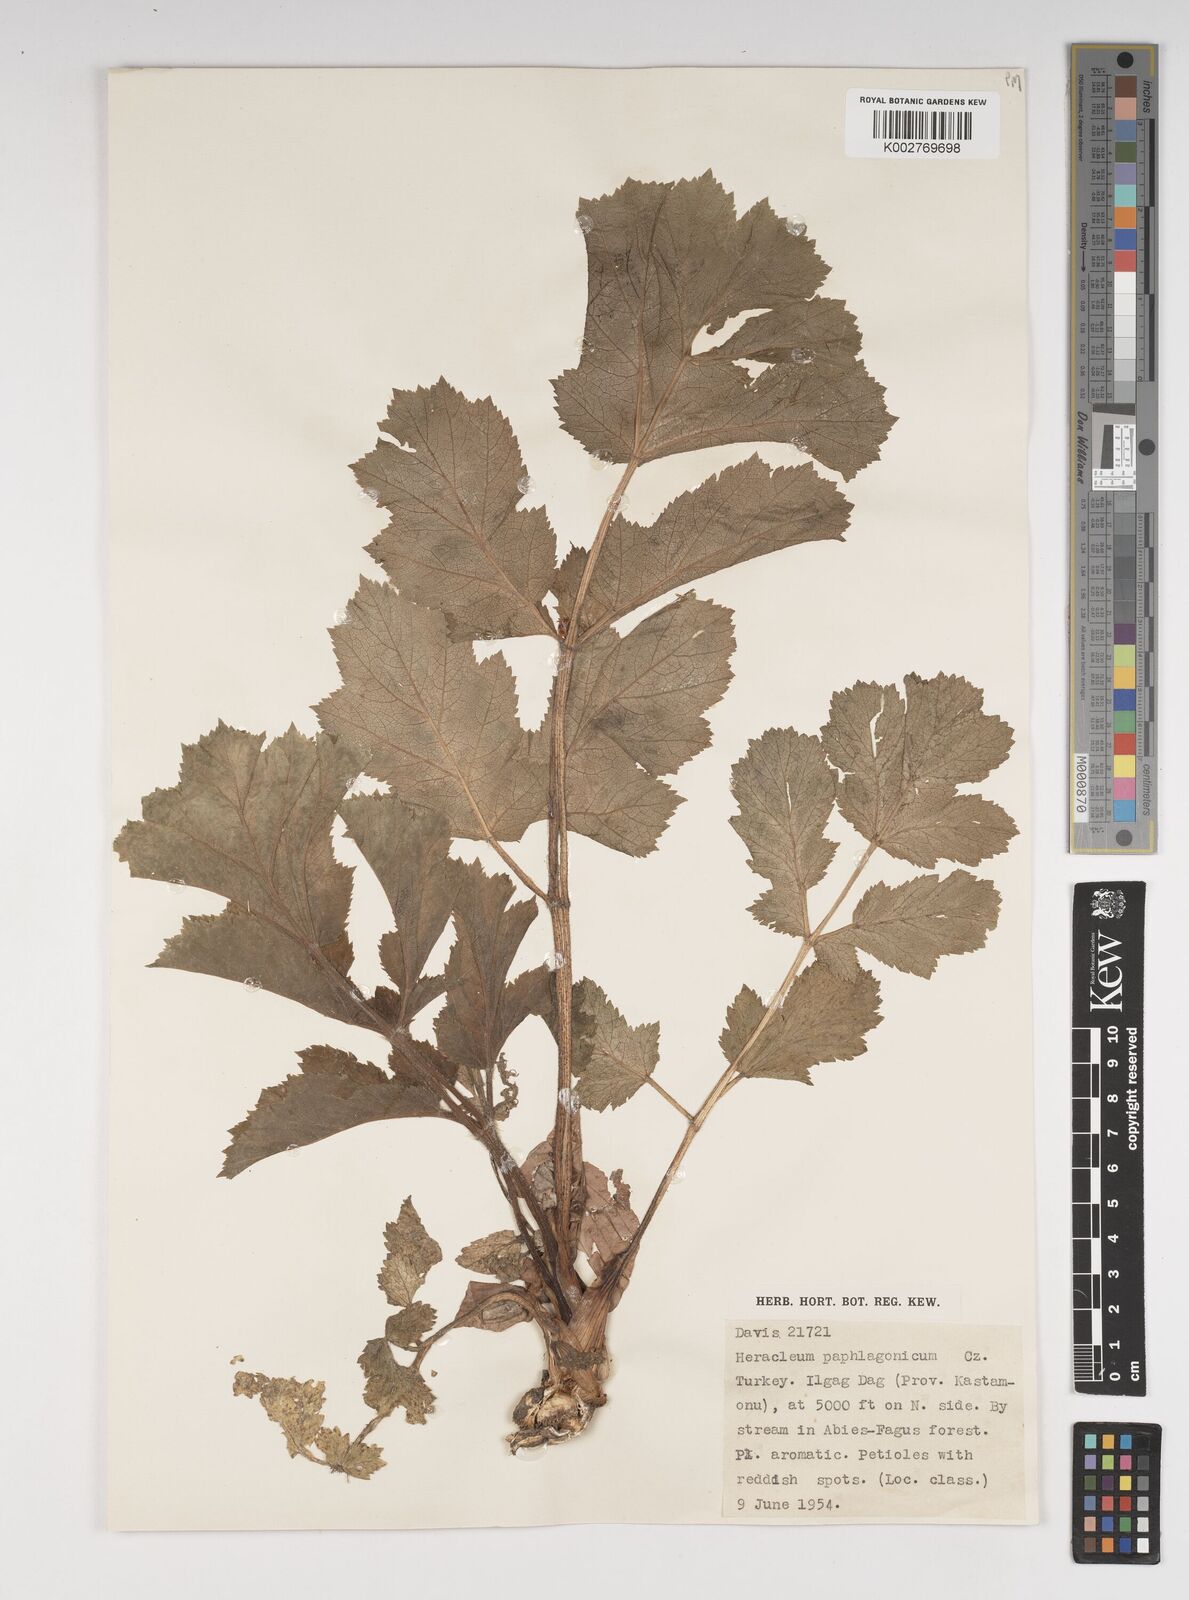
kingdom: Plantae
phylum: Tracheophyta
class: Magnoliopsida
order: Apiales
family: Apiaceae
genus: Heracleum
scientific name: Heracleum paphlagonicum
